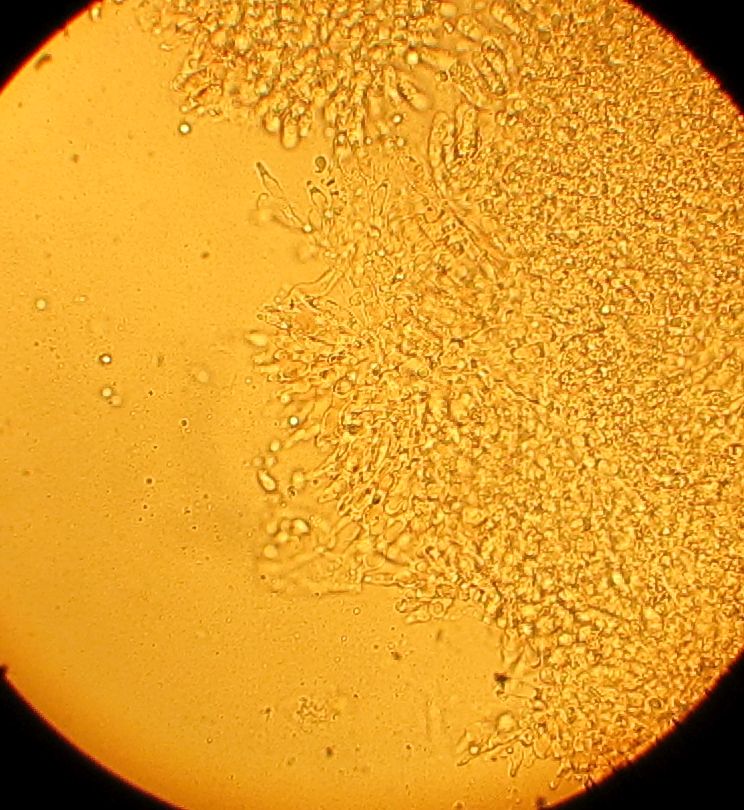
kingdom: Fungi
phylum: Basidiomycota
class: Agaricomycetes
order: Agaricales
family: Mycenaceae
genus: Mycena
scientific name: Mycena olivaceomarginata
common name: brunægget huesvamp
